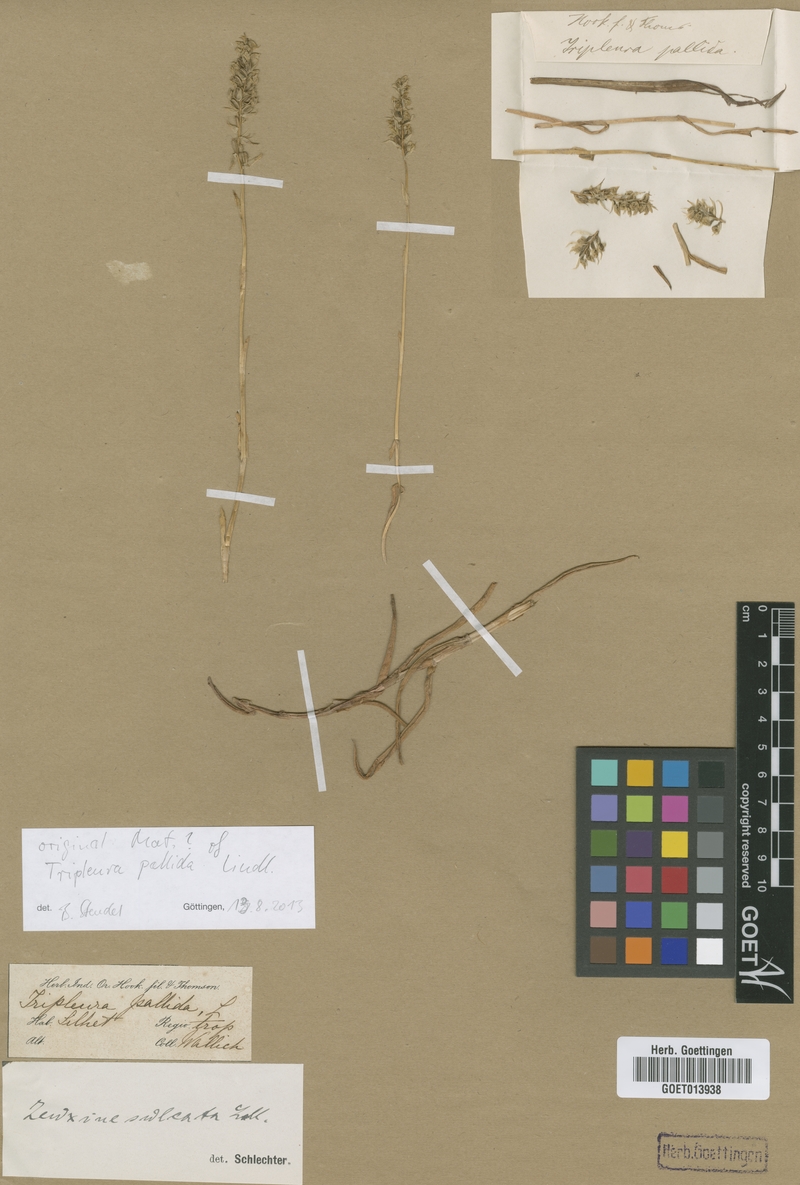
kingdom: Plantae
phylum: Tracheophyta
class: Liliopsida
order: Asparagales
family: Orchidaceae
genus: Zeuxine
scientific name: Zeuxine strateumatica
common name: Soldier's orchid
